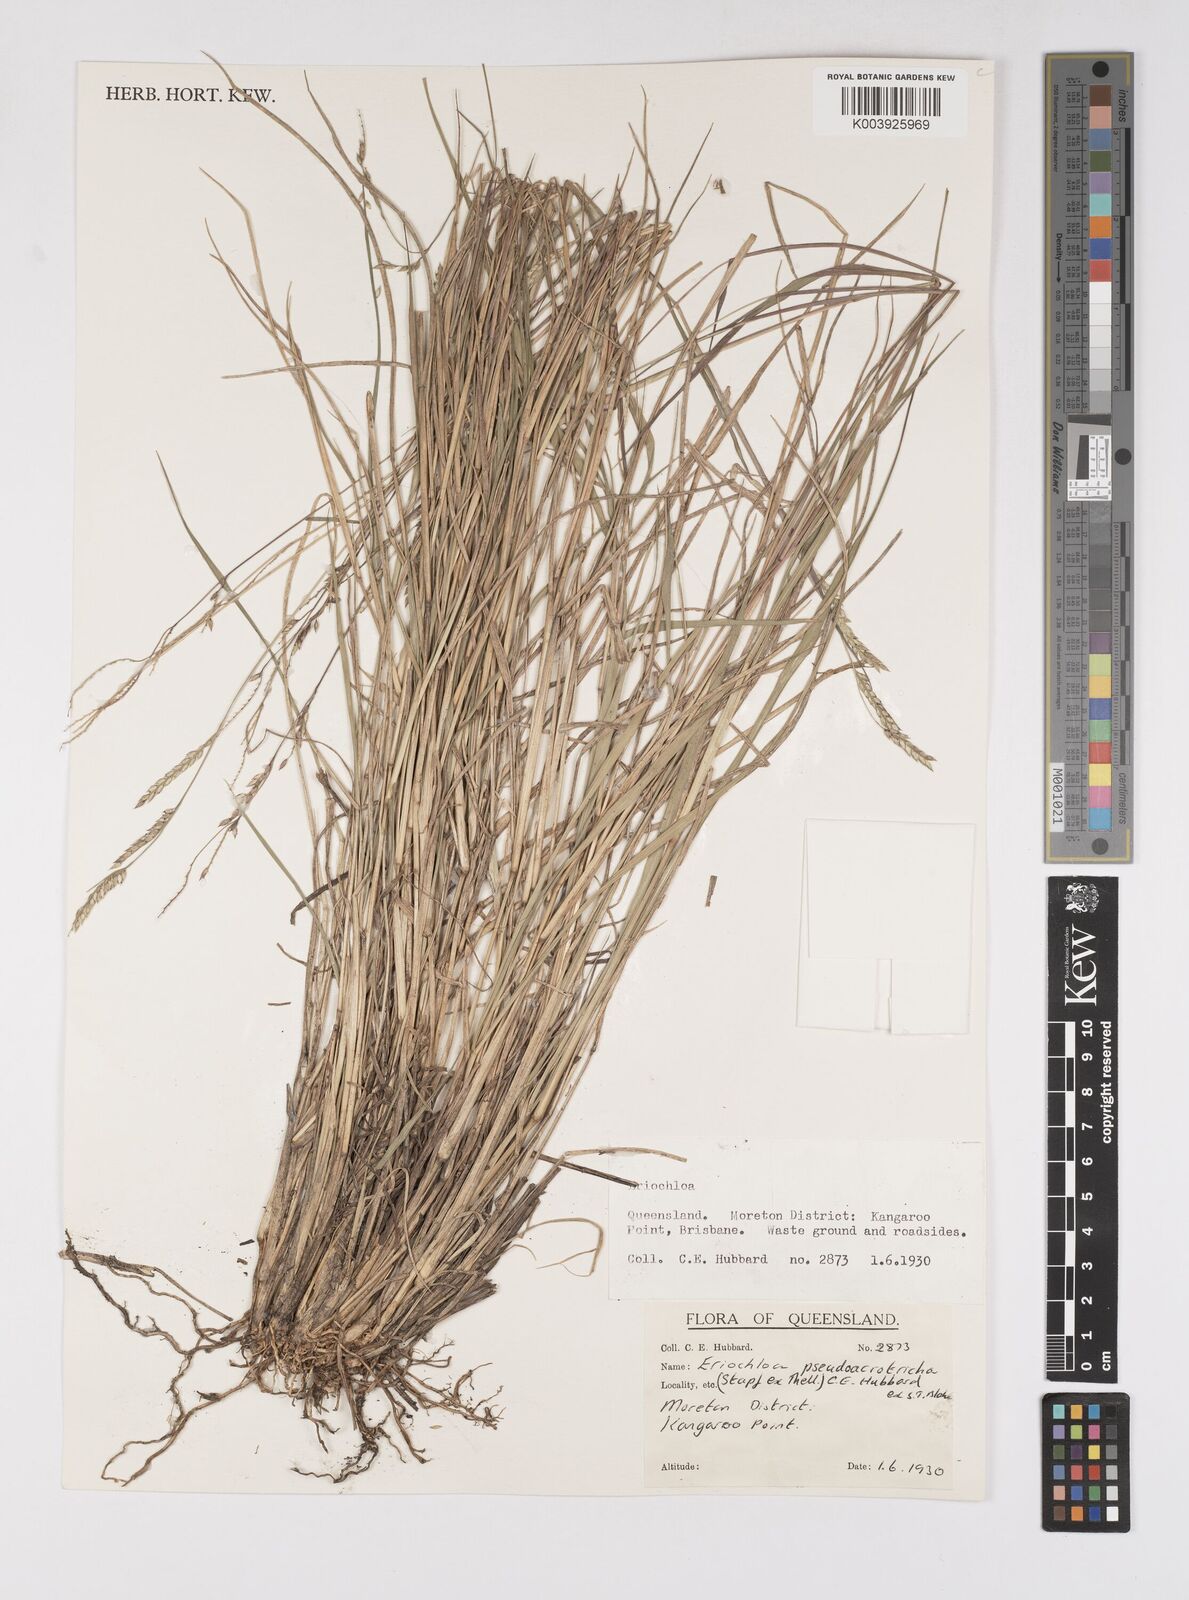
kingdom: Plantae
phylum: Tracheophyta
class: Liliopsida
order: Poales
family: Poaceae
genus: Eriochloa
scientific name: Eriochloa pseudoacrotricha
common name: Perennial cup-grass
